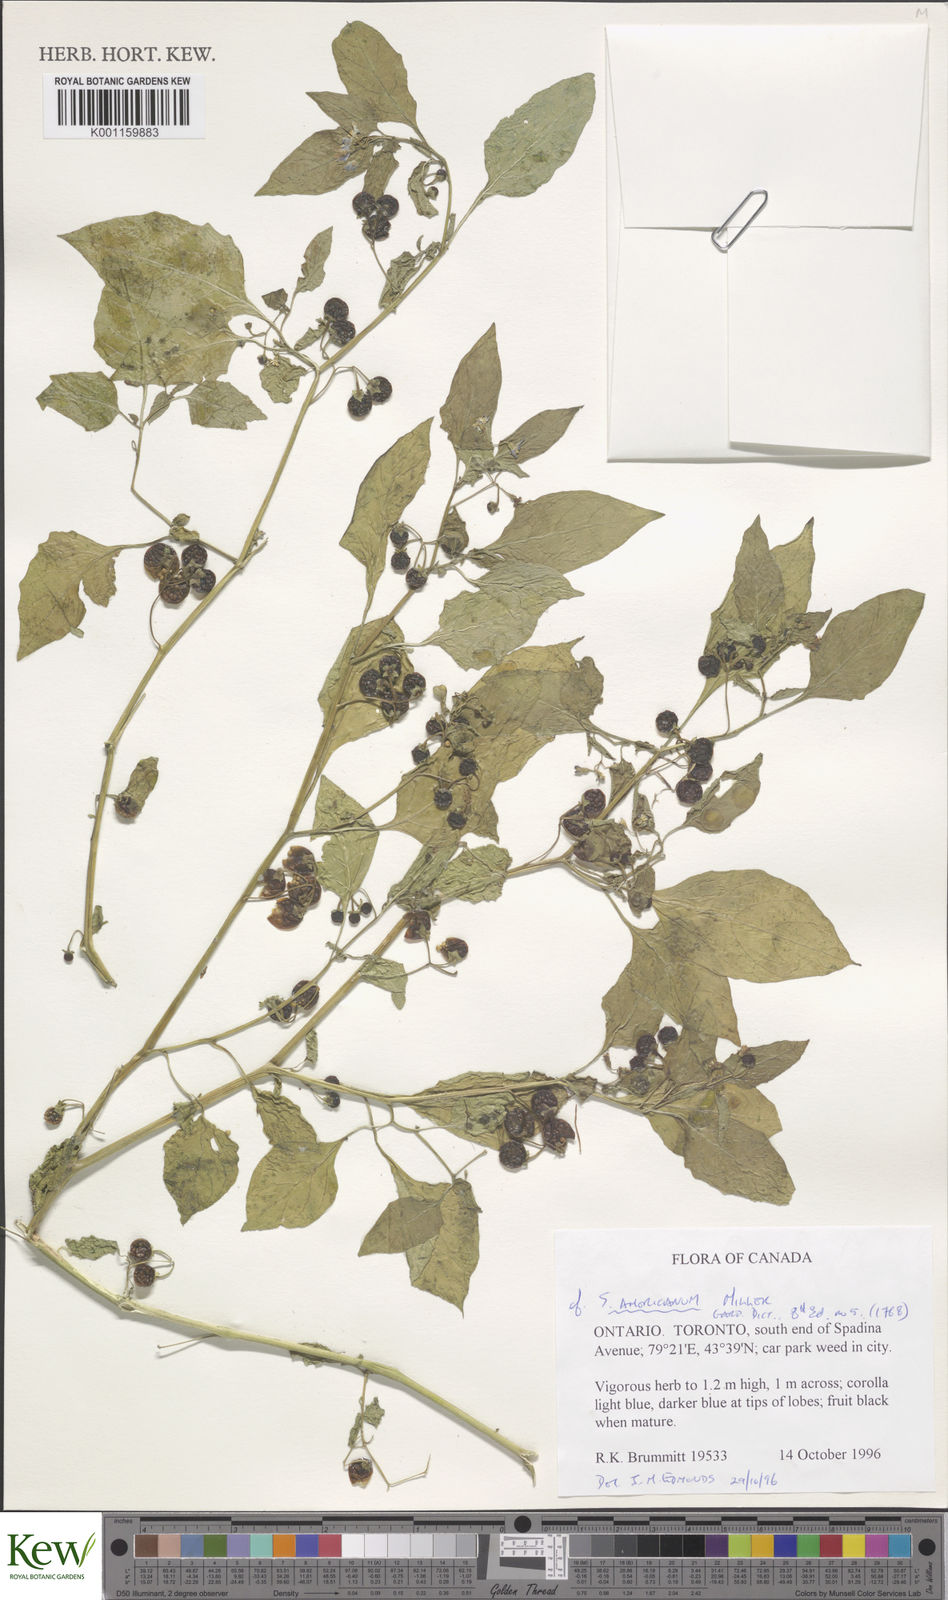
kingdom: Plantae
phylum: Tracheophyta
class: Magnoliopsida
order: Solanales
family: Solanaceae
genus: Solanum
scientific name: Solanum emulans
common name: Eastern black nightshade
